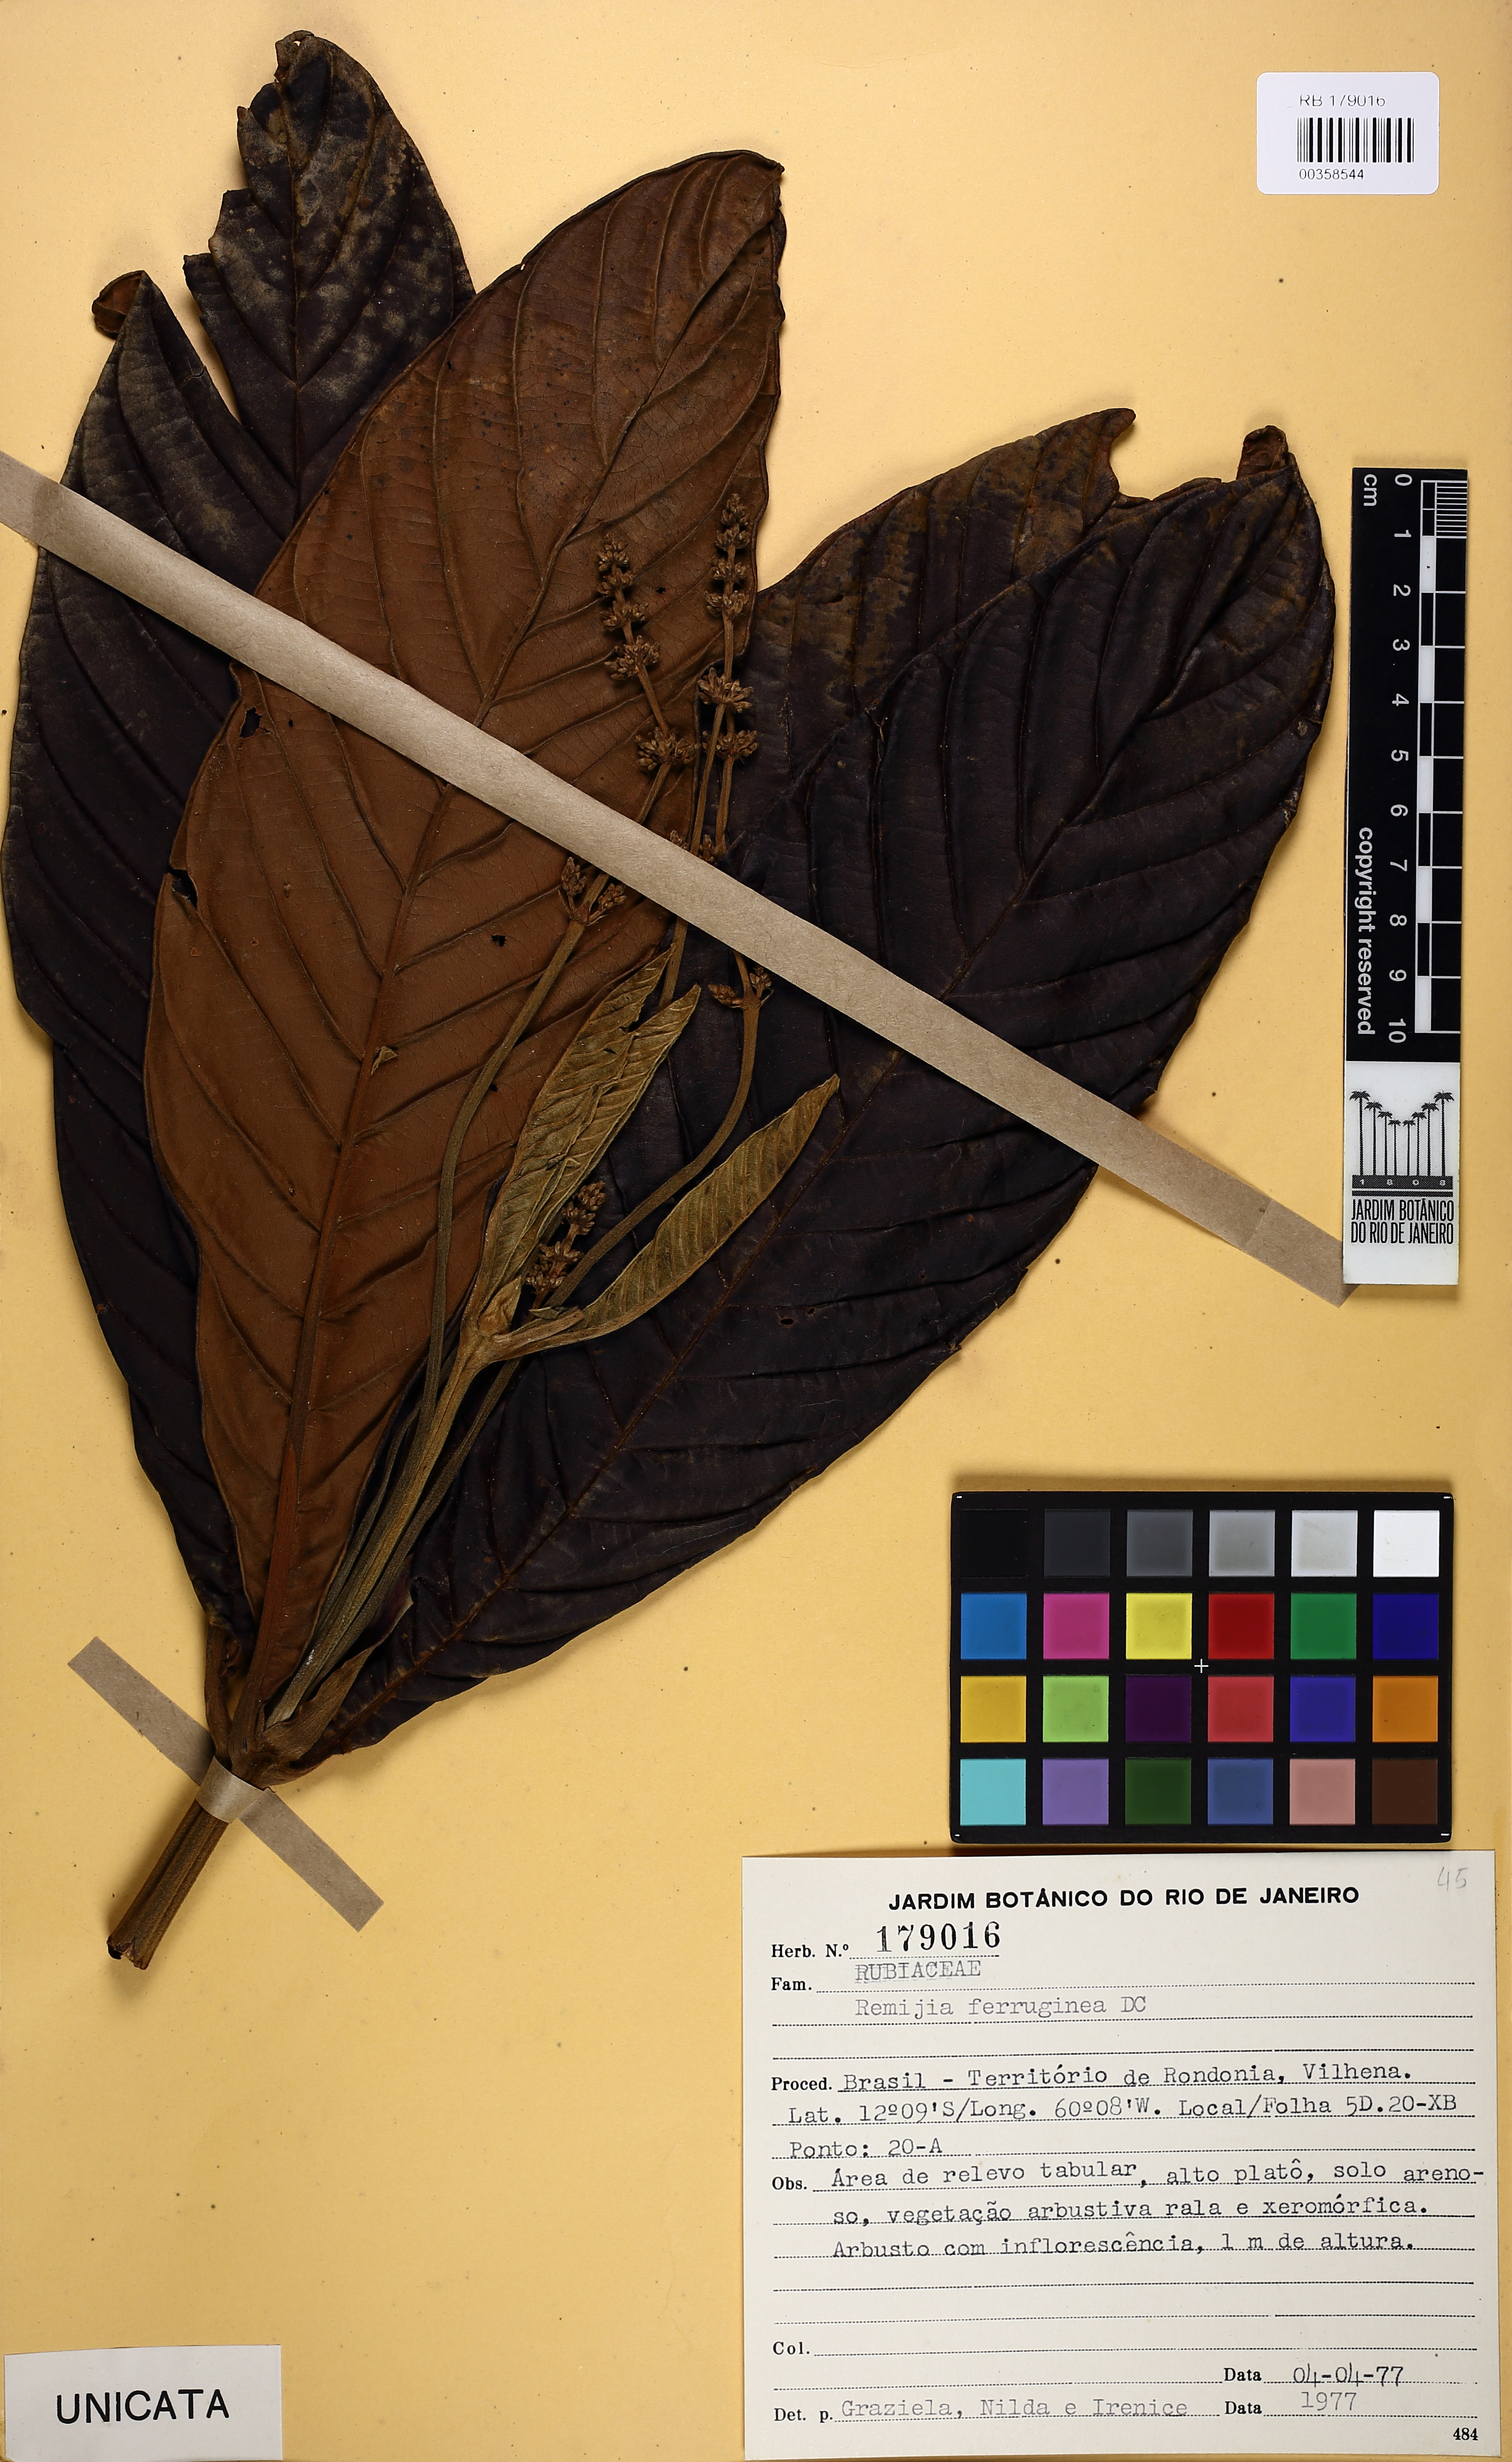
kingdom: Plantae
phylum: Tracheophyta
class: Magnoliopsida
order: Gentianales
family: Rubiaceae
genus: Remijia
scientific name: Remijia ferruginea
